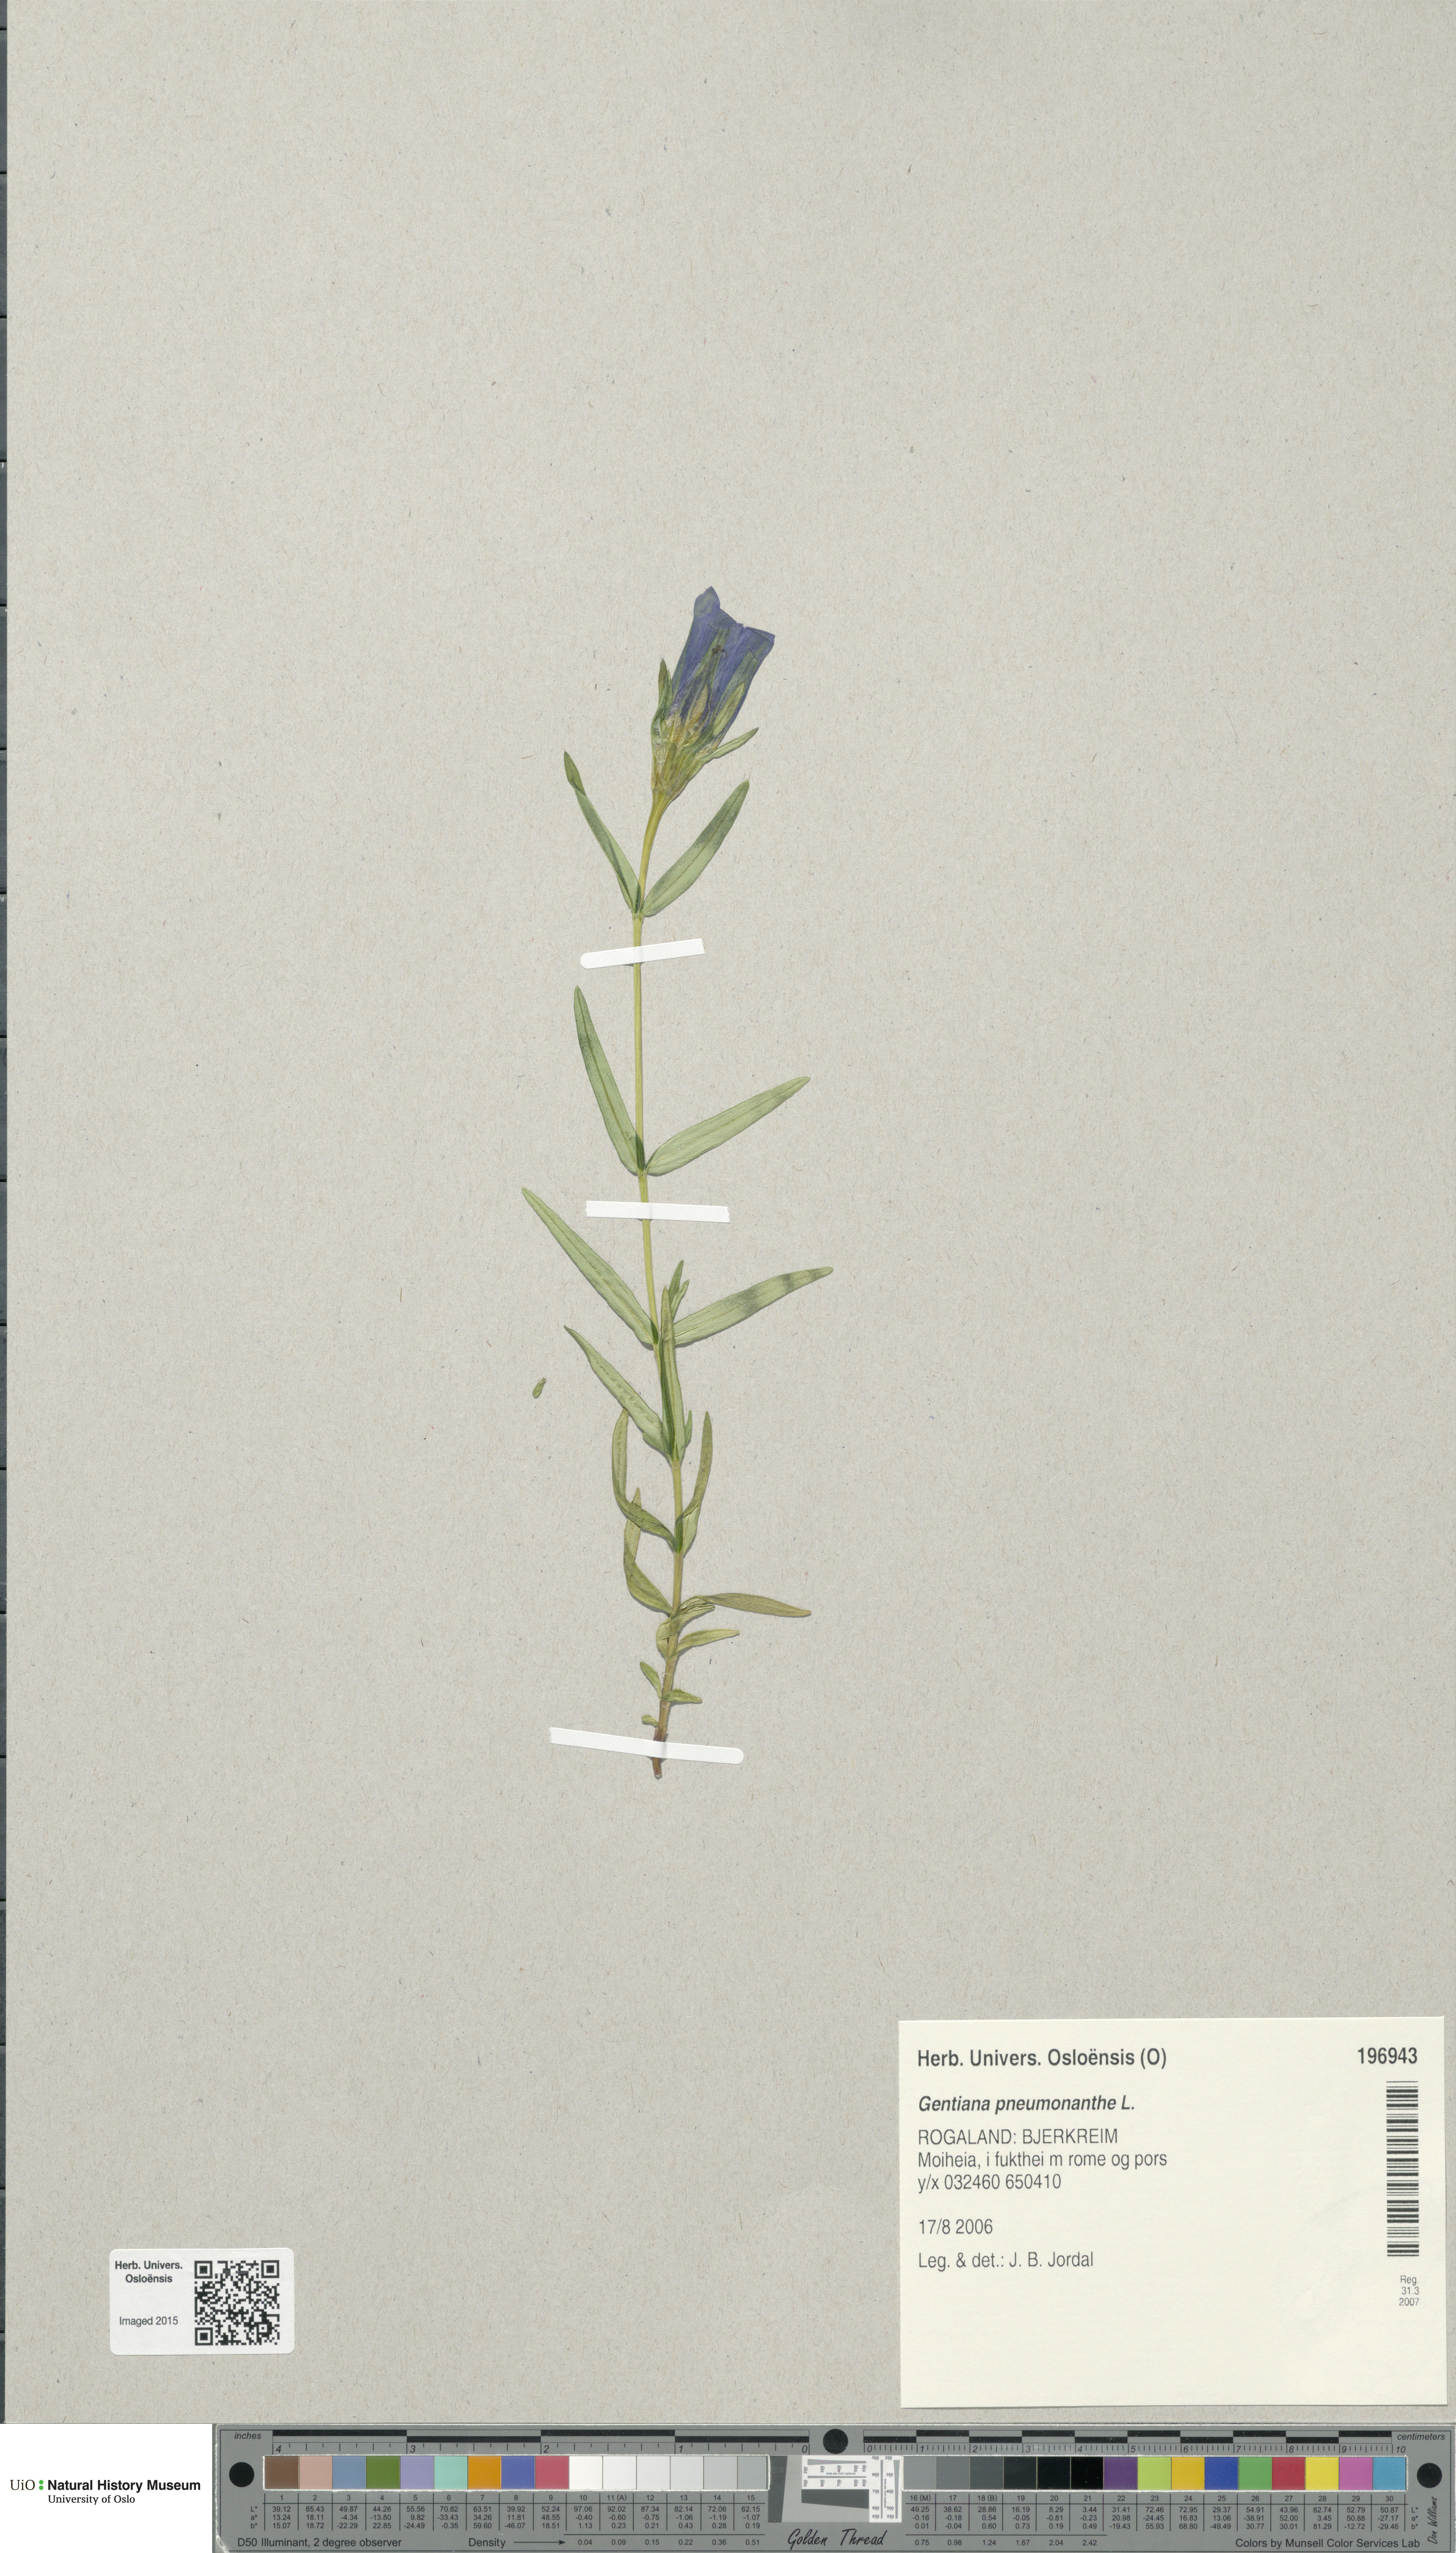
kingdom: Plantae
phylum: Tracheophyta
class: Magnoliopsida
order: Gentianales
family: Gentianaceae
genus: Gentiana
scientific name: Gentiana pneumonanthe
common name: Marsh gentian
